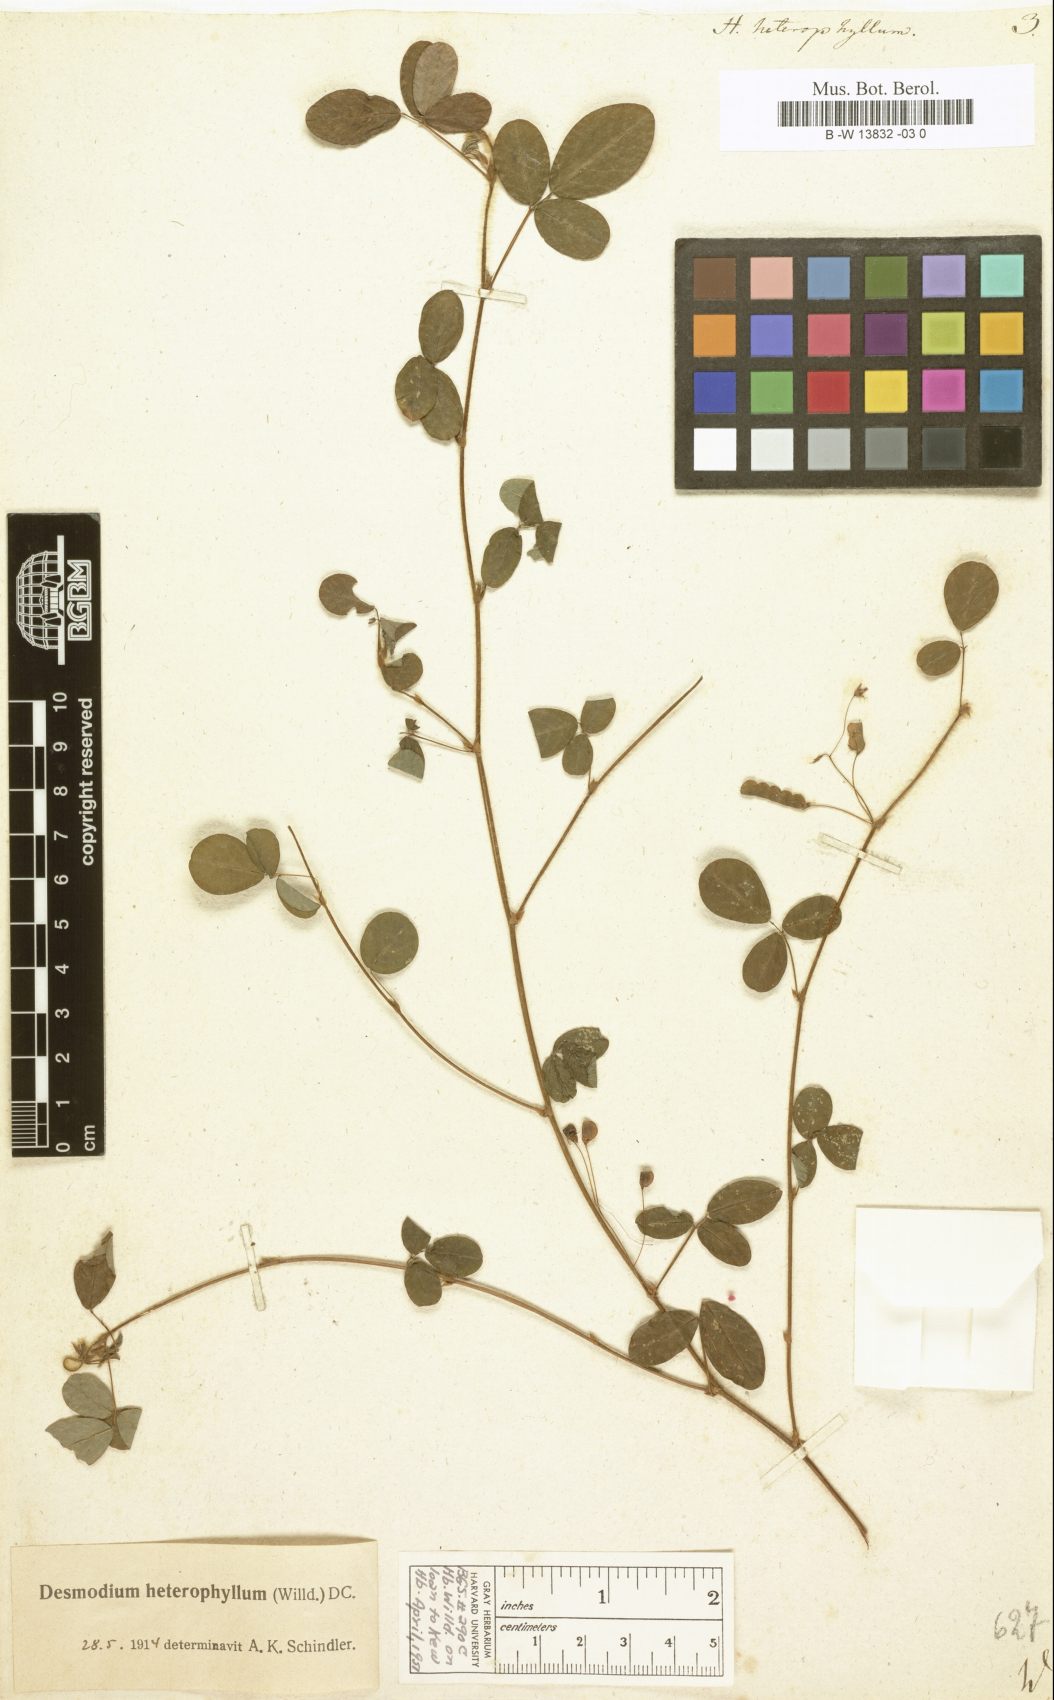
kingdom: Plantae
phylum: Tracheophyta
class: Magnoliopsida
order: Fabales
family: Fabaceae
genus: Grona
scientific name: Grona heterophylla
